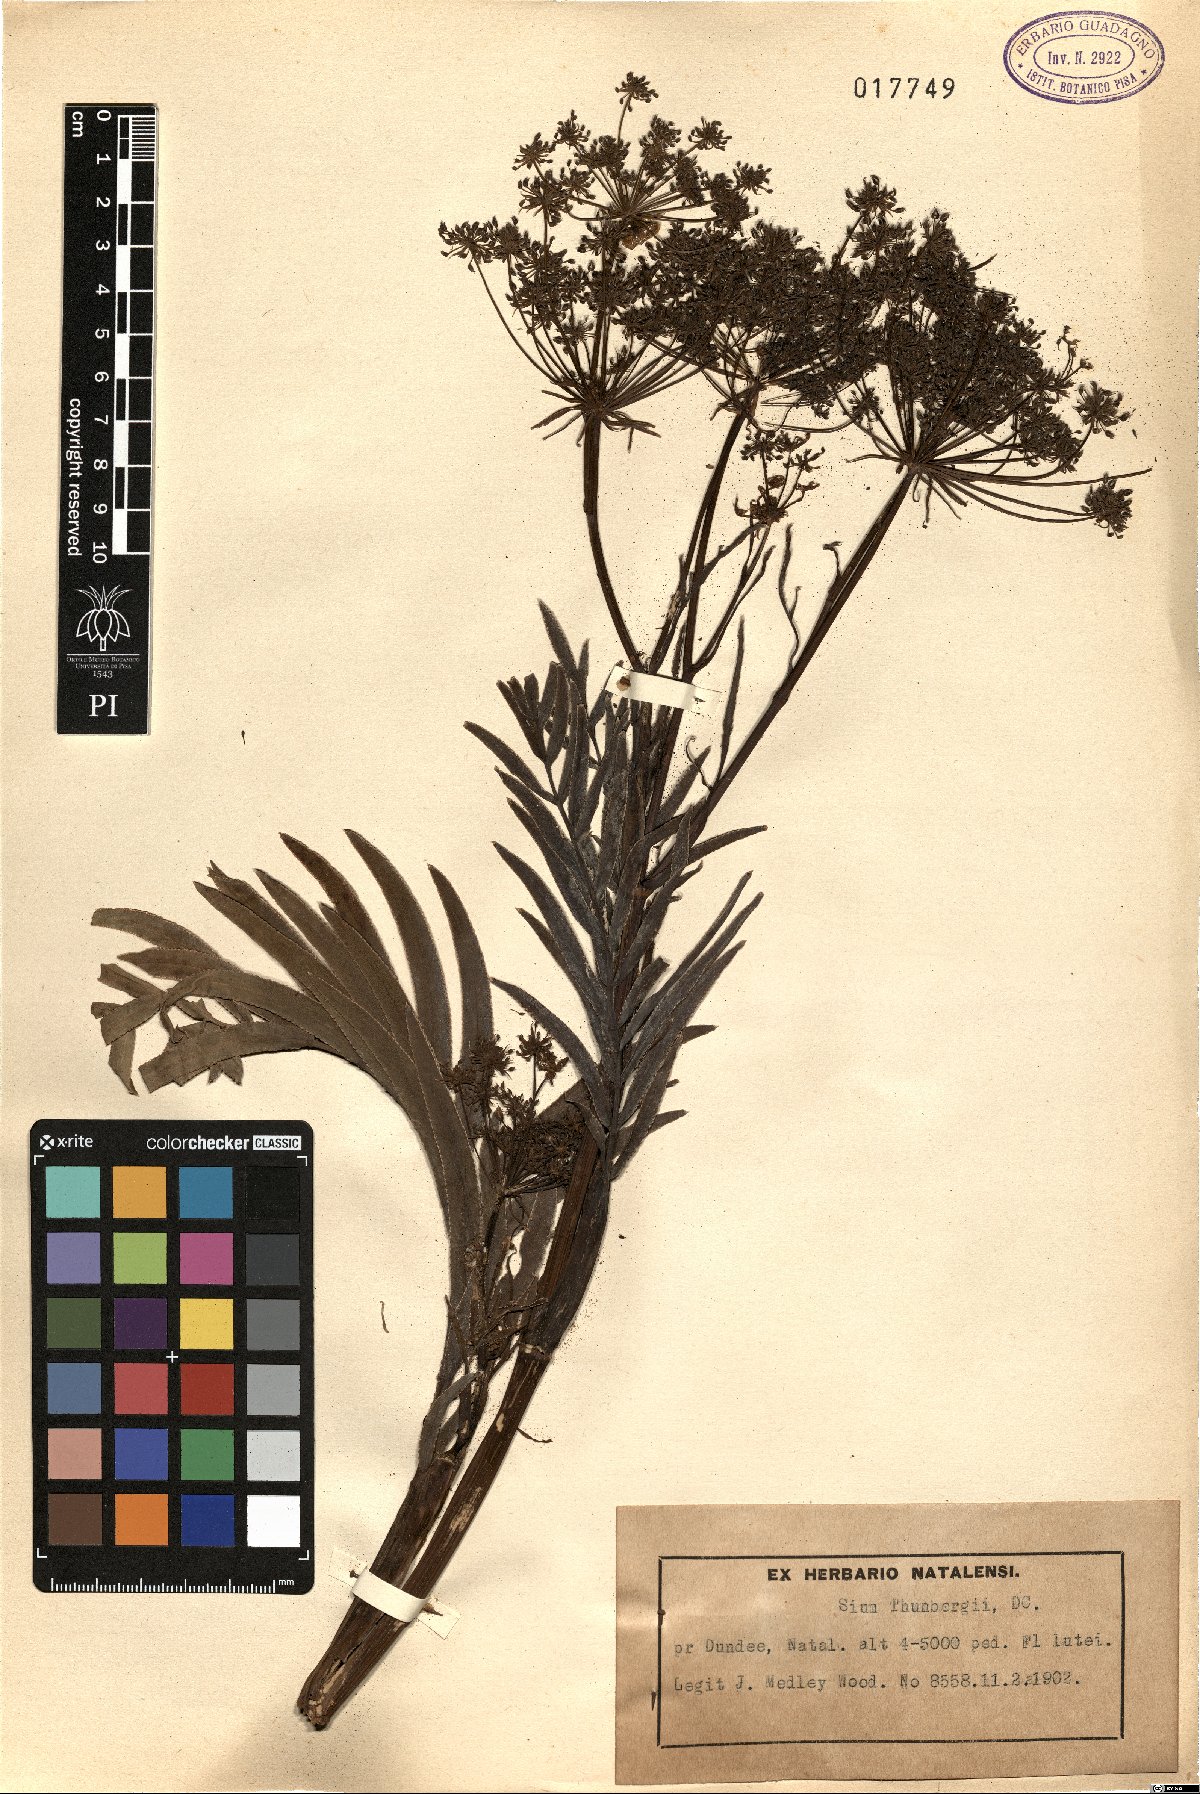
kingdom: Plantae
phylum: Tracheophyta
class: Magnoliopsida
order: Apiales
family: Apiaceae
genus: Berula
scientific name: Berula thunbergii
